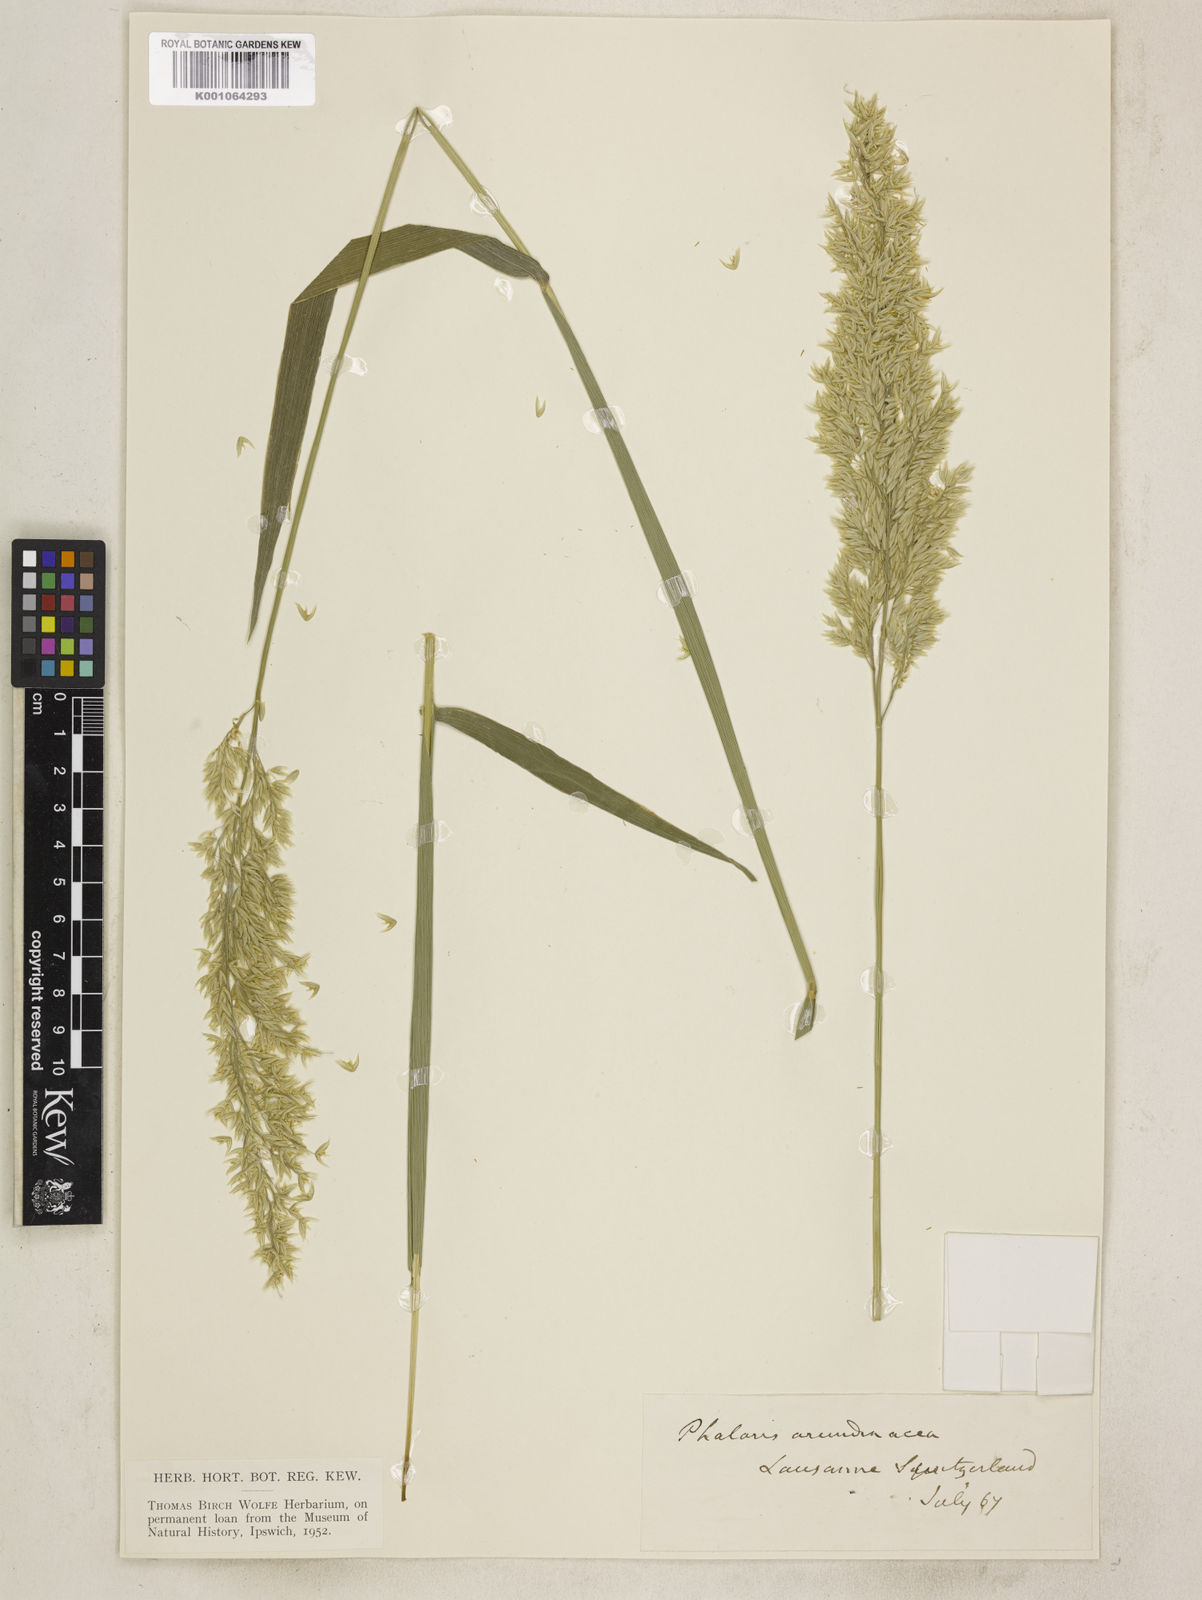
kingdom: Plantae
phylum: Tracheophyta
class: Liliopsida
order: Poales
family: Poaceae
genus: Phalaris
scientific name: Phalaris arundinacea
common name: Reed canary-grass
